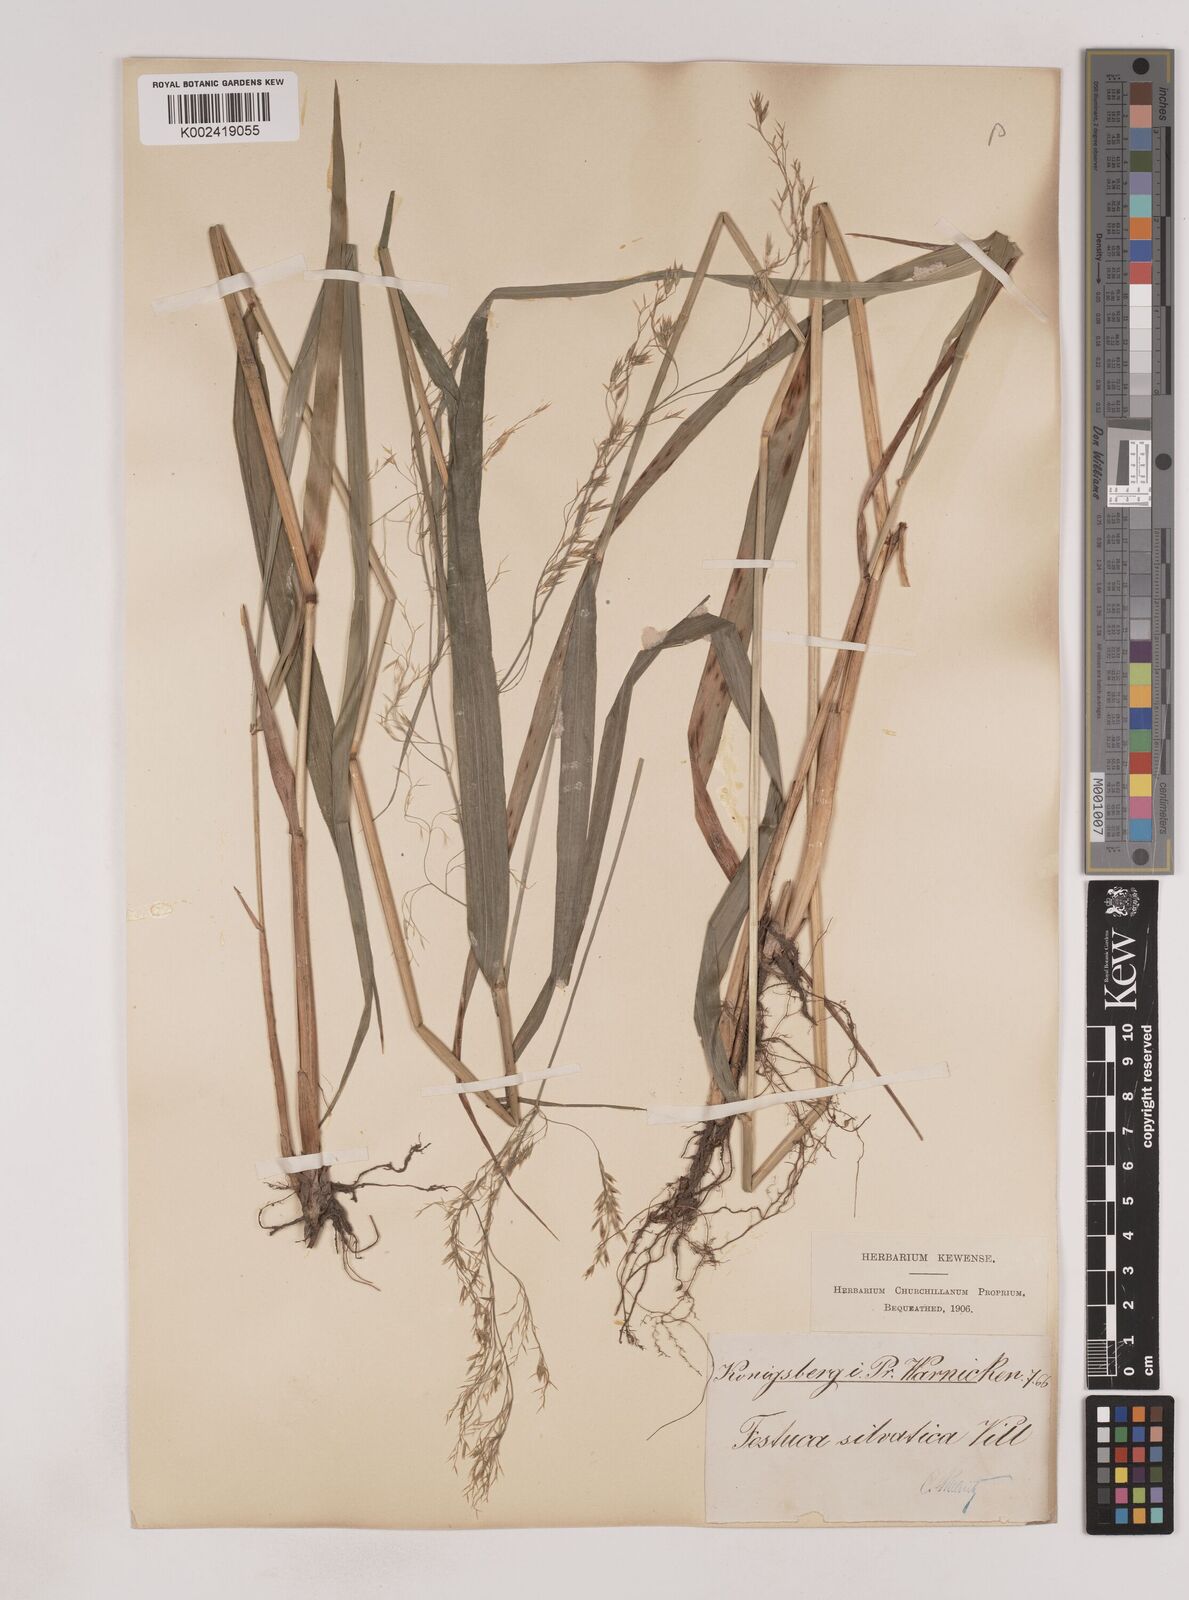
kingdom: Plantae
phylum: Tracheophyta
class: Liliopsida
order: Poales
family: Poaceae
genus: Festuca
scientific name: Festuca drymeja
